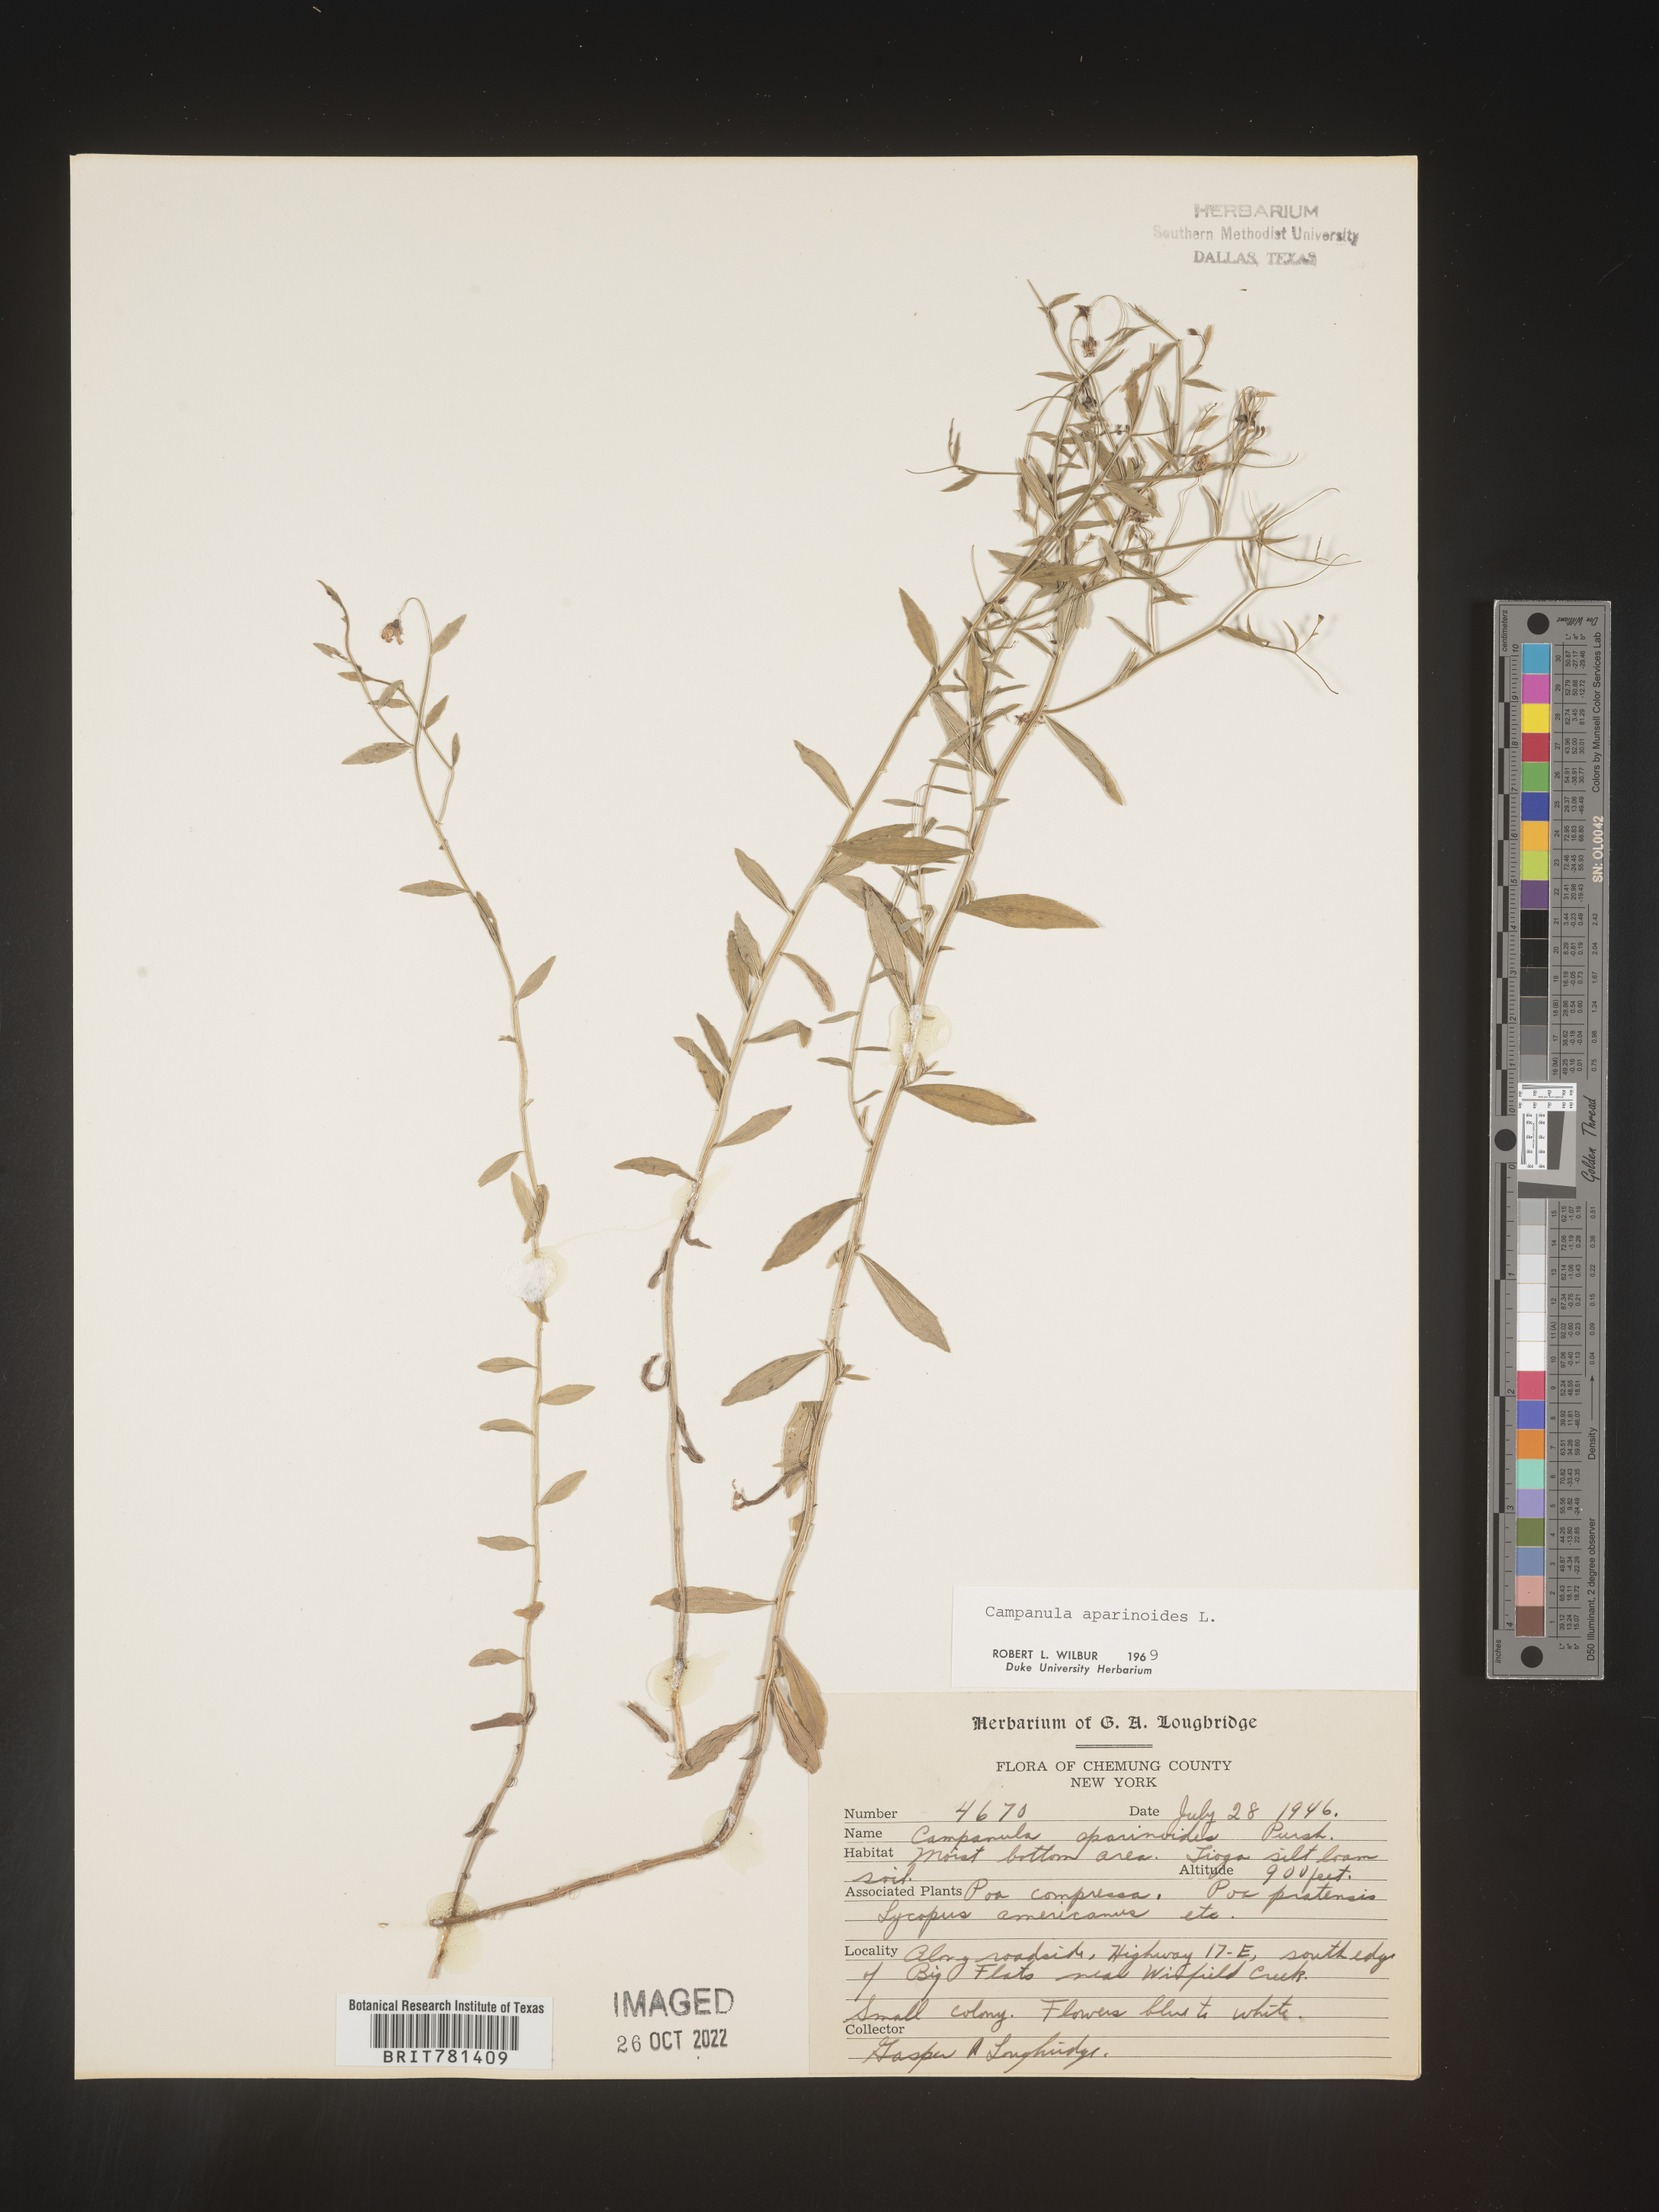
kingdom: Plantae
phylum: Tracheophyta
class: Magnoliopsida
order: Asterales
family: Campanulaceae
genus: Palustricodon
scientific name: Palustricodon aparinoides
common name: Bedstraw bellflower
